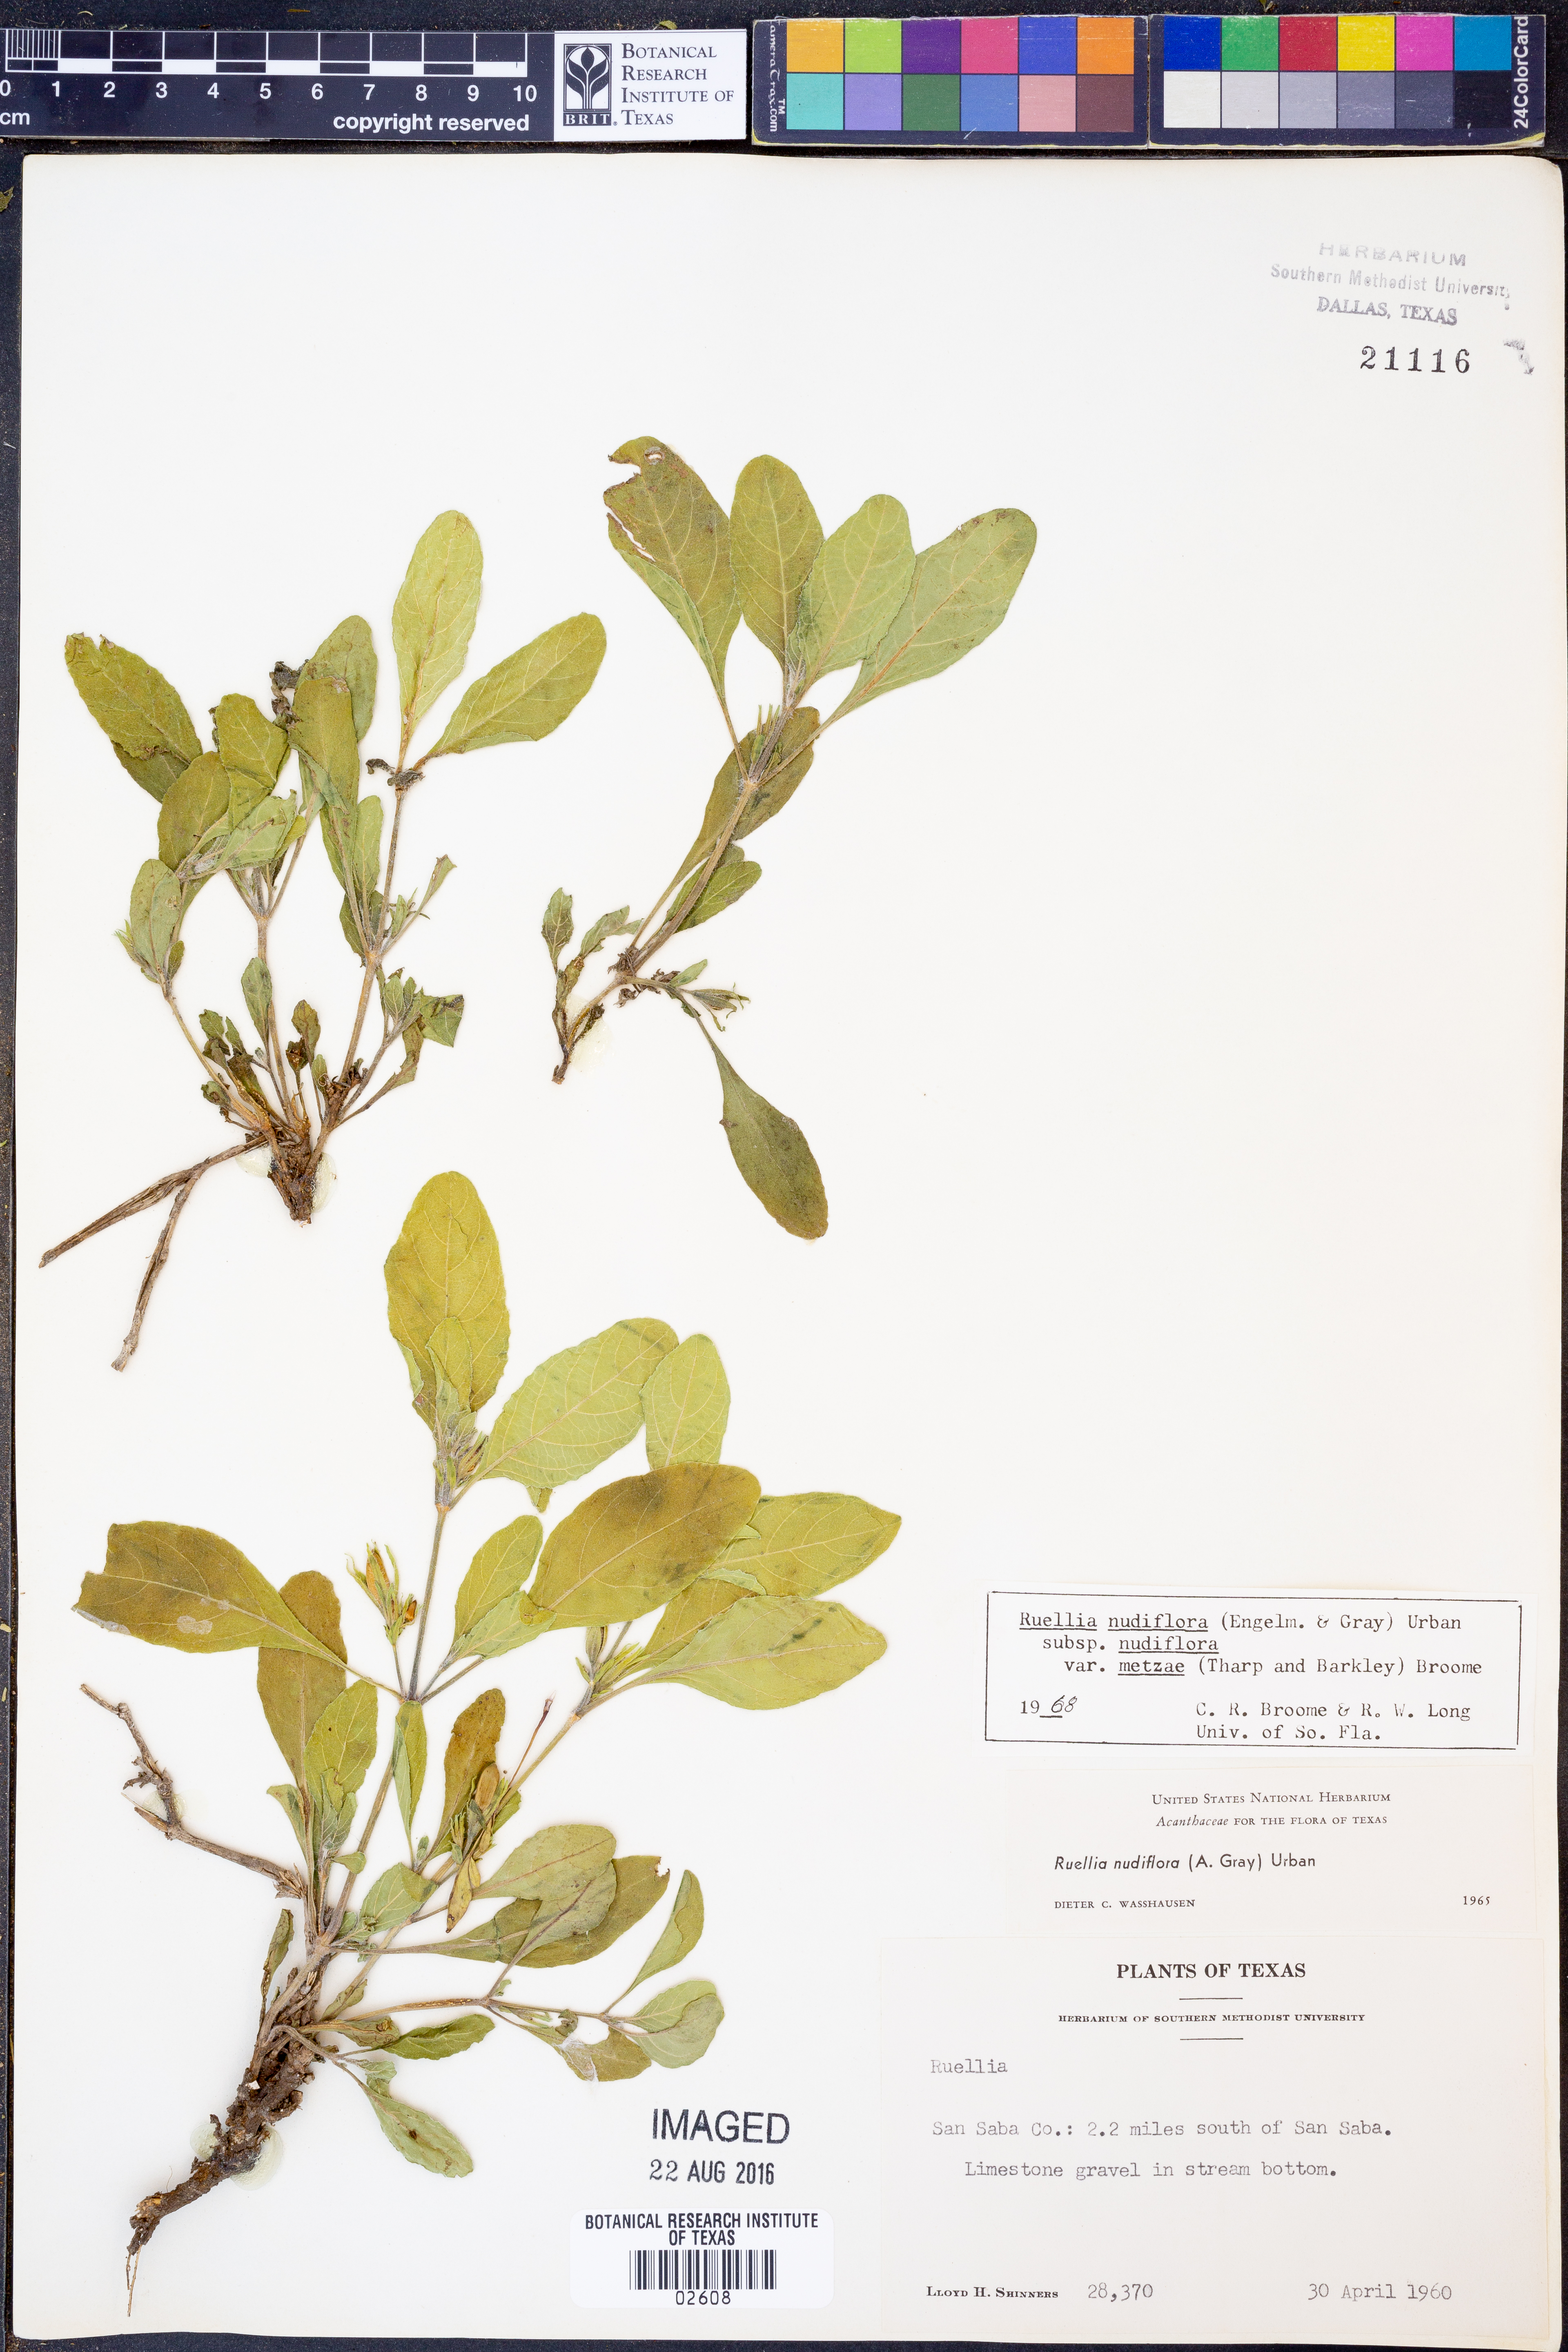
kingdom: Plantae
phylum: Tracheophyta
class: Magnoliopsida
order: Lamiales
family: Acanthaceae
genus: Ruellia
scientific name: Ruellia ciliatiflora
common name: Hairyflower wild petunia
